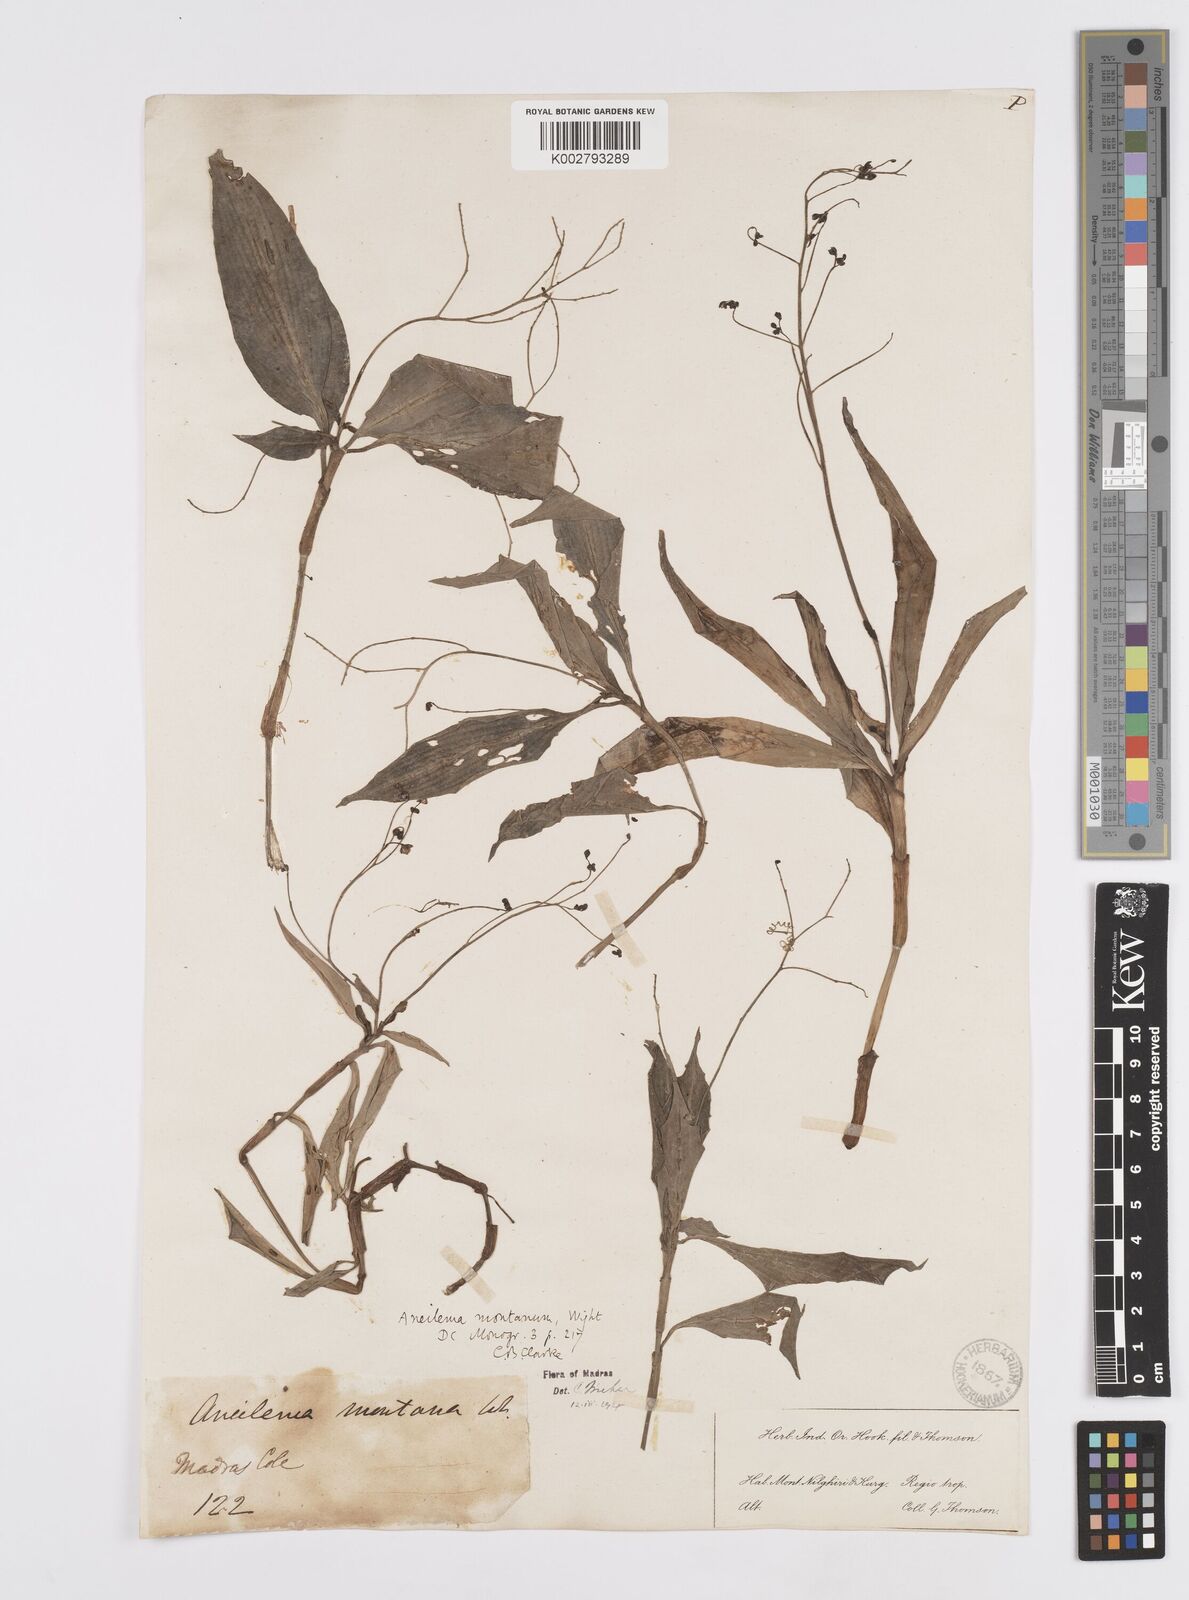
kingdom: Plantae
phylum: Tracheophyta
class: Liliopsida
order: Commelinales
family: Commelinaceae
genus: Murdannia
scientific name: Murdannia
